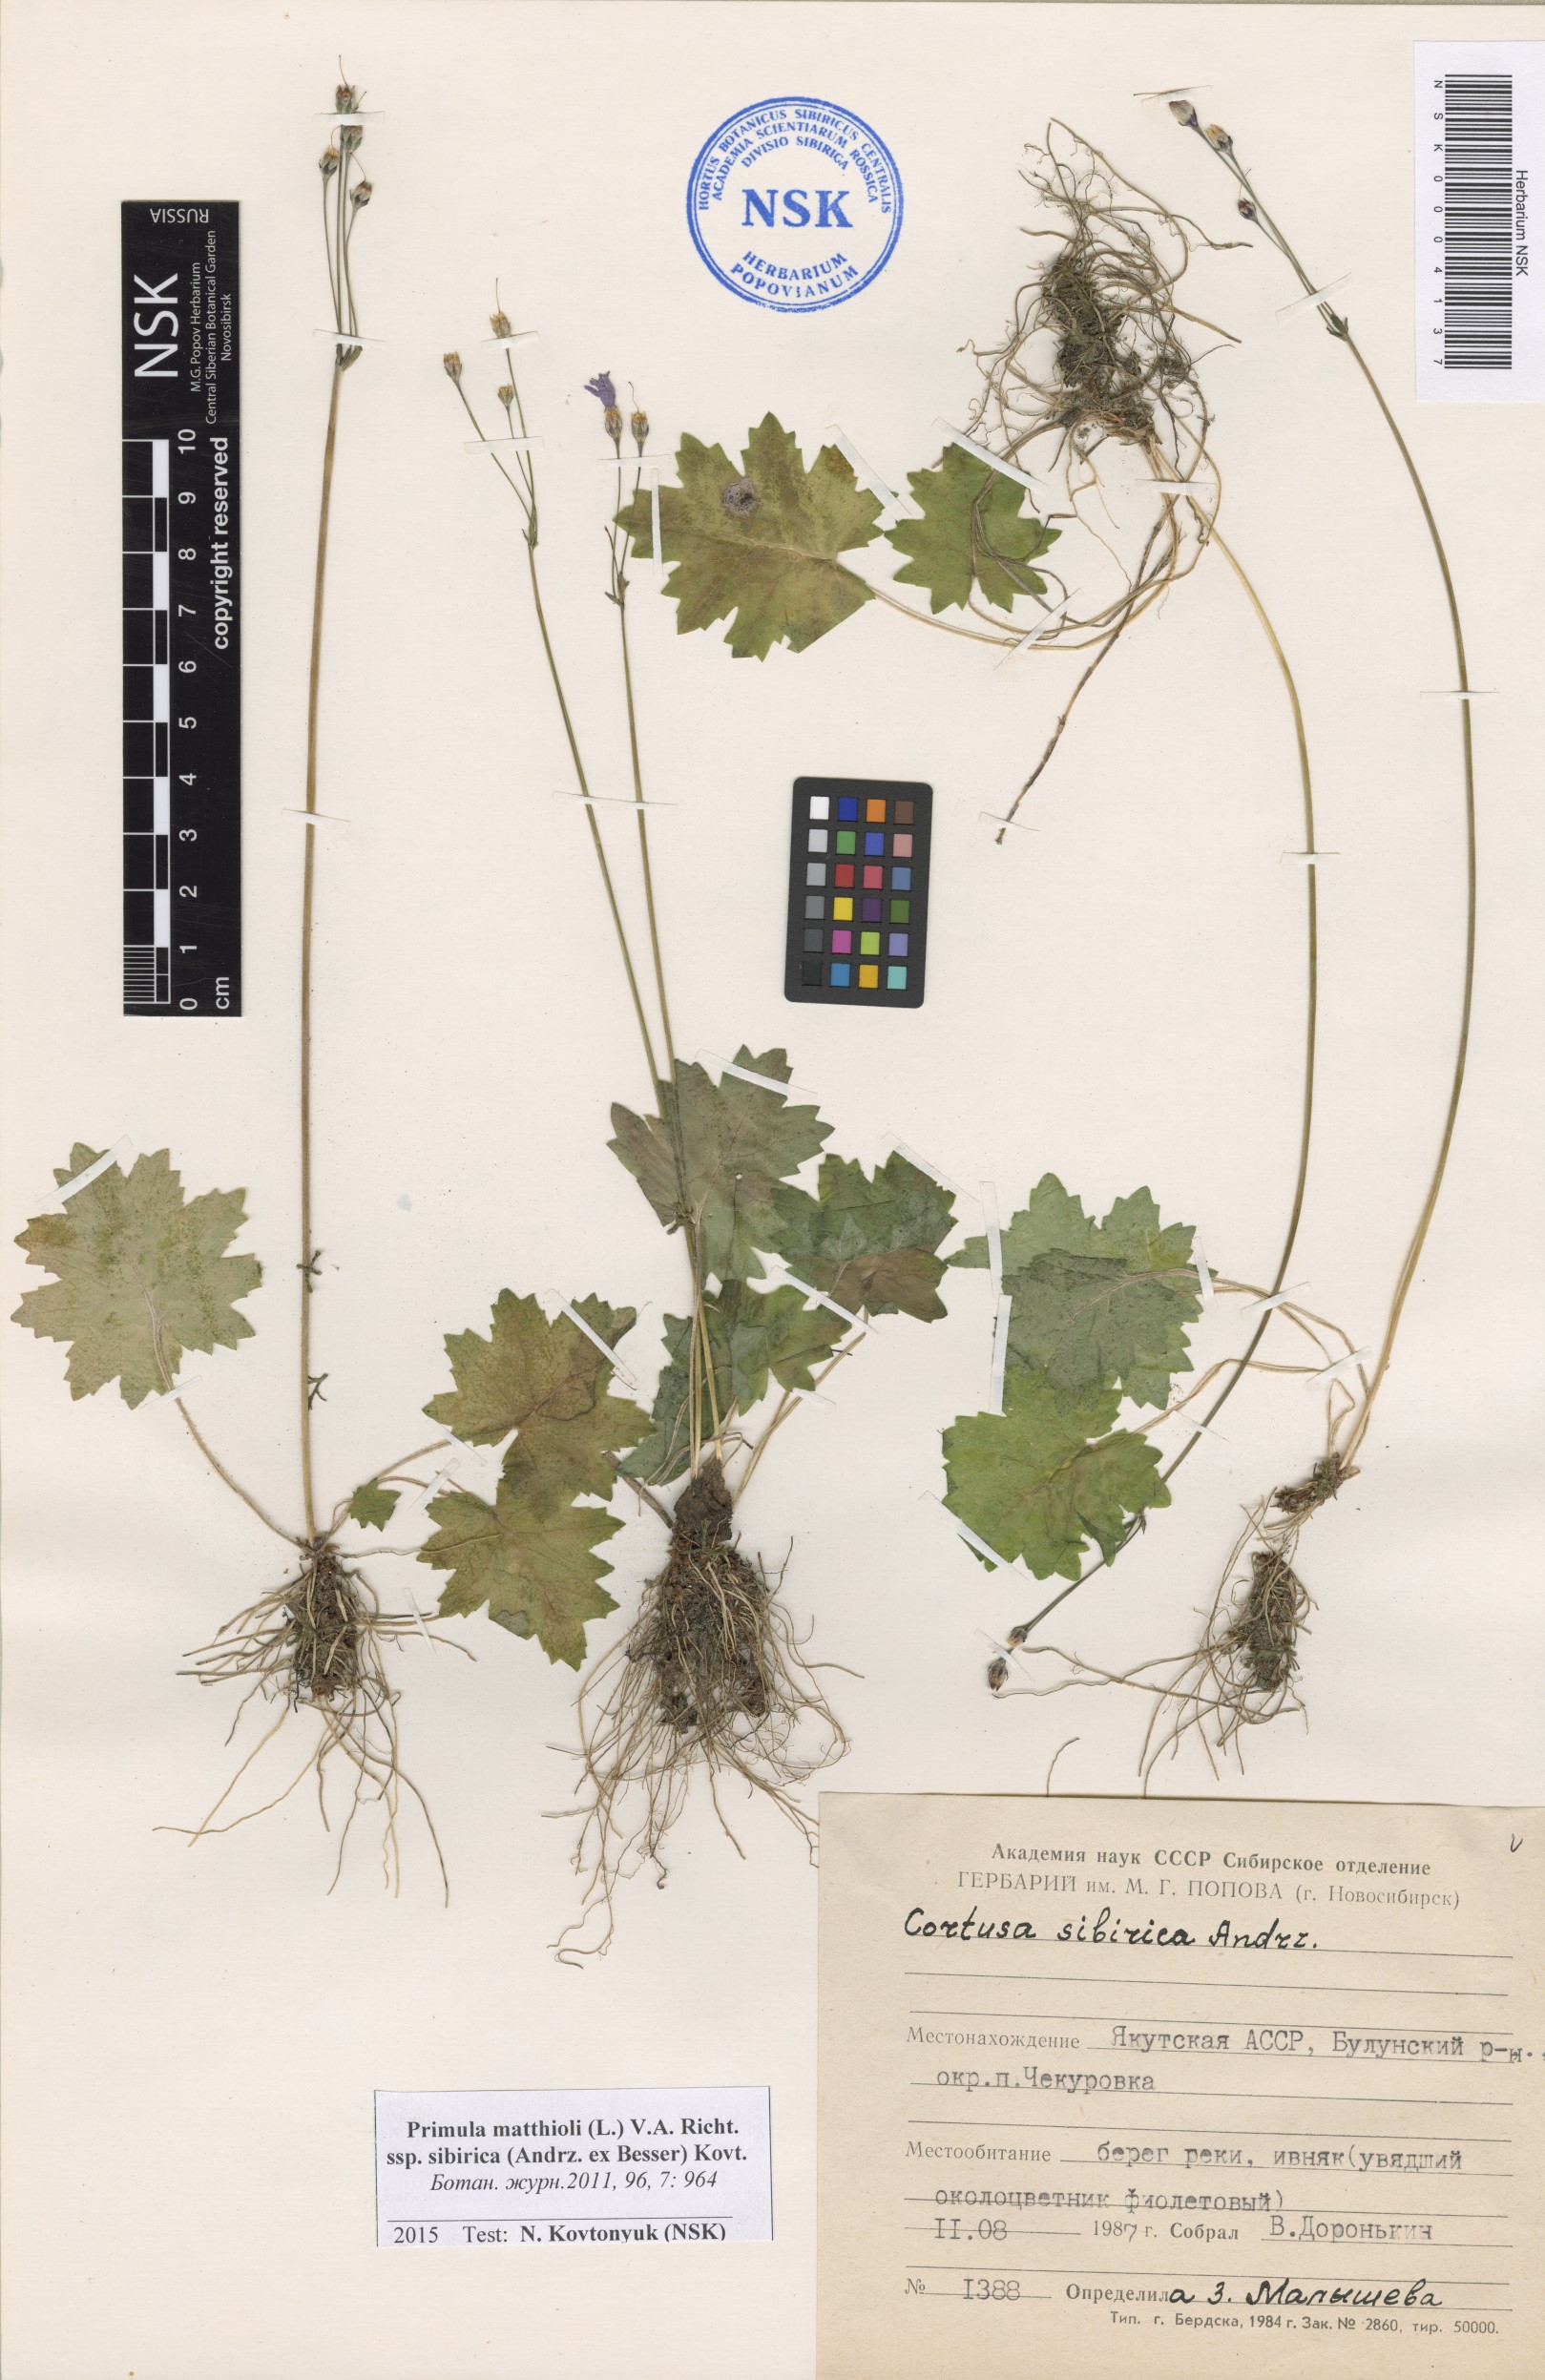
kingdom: Plantae
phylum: Tracheophyta
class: Magnoliopsida
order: Ericales
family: Primulaceae
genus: Primula
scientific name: Primula matthioli
